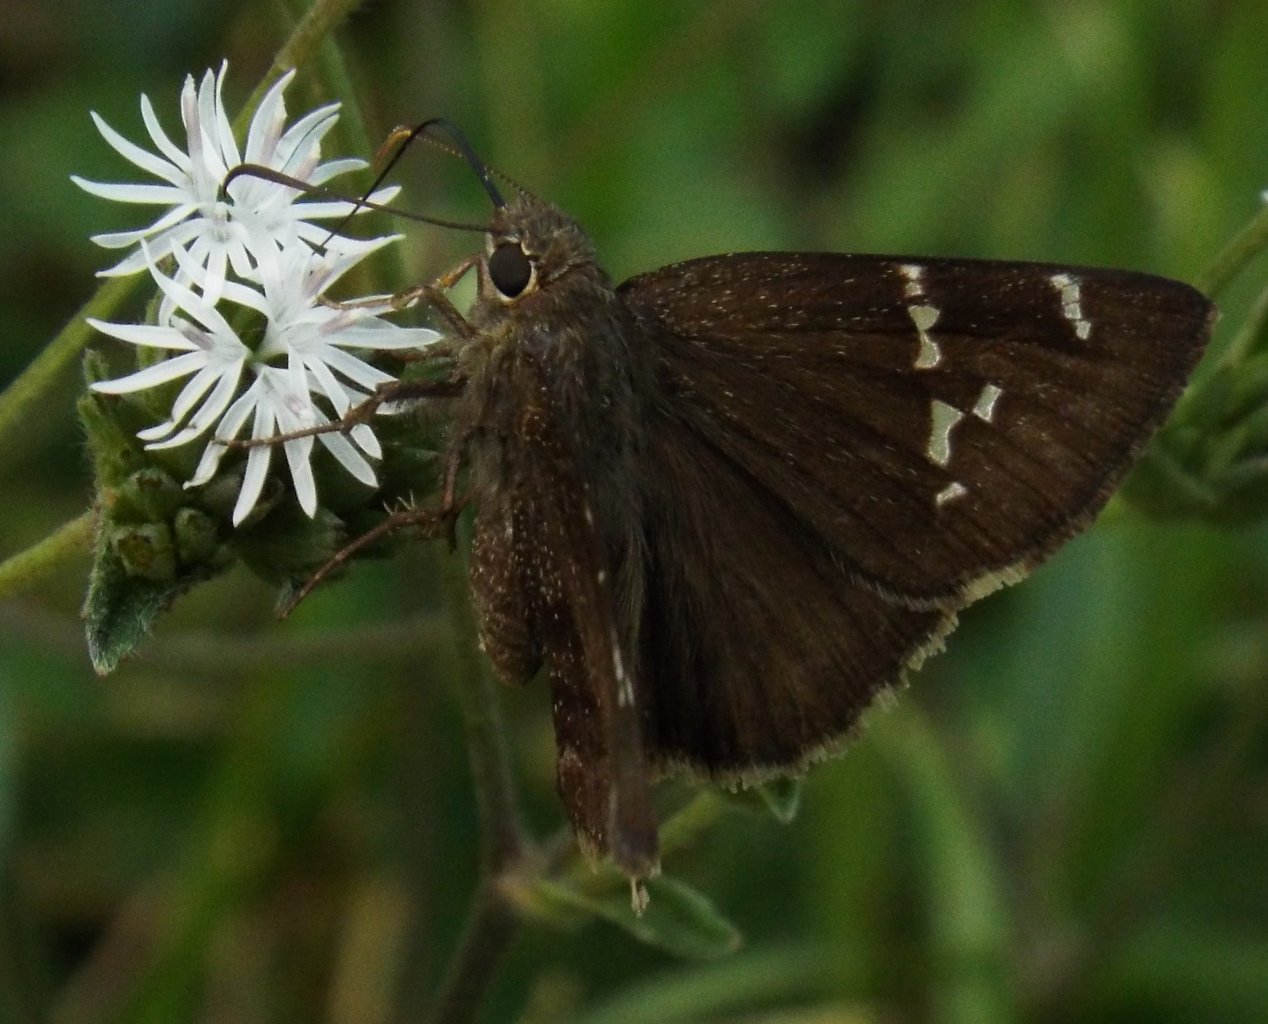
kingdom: Animalia
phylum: Arthropoda
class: Insecta
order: Lepidoptera
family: Hesperiidae
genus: Autochton
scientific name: Autochton
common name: Southern Cloudywing
